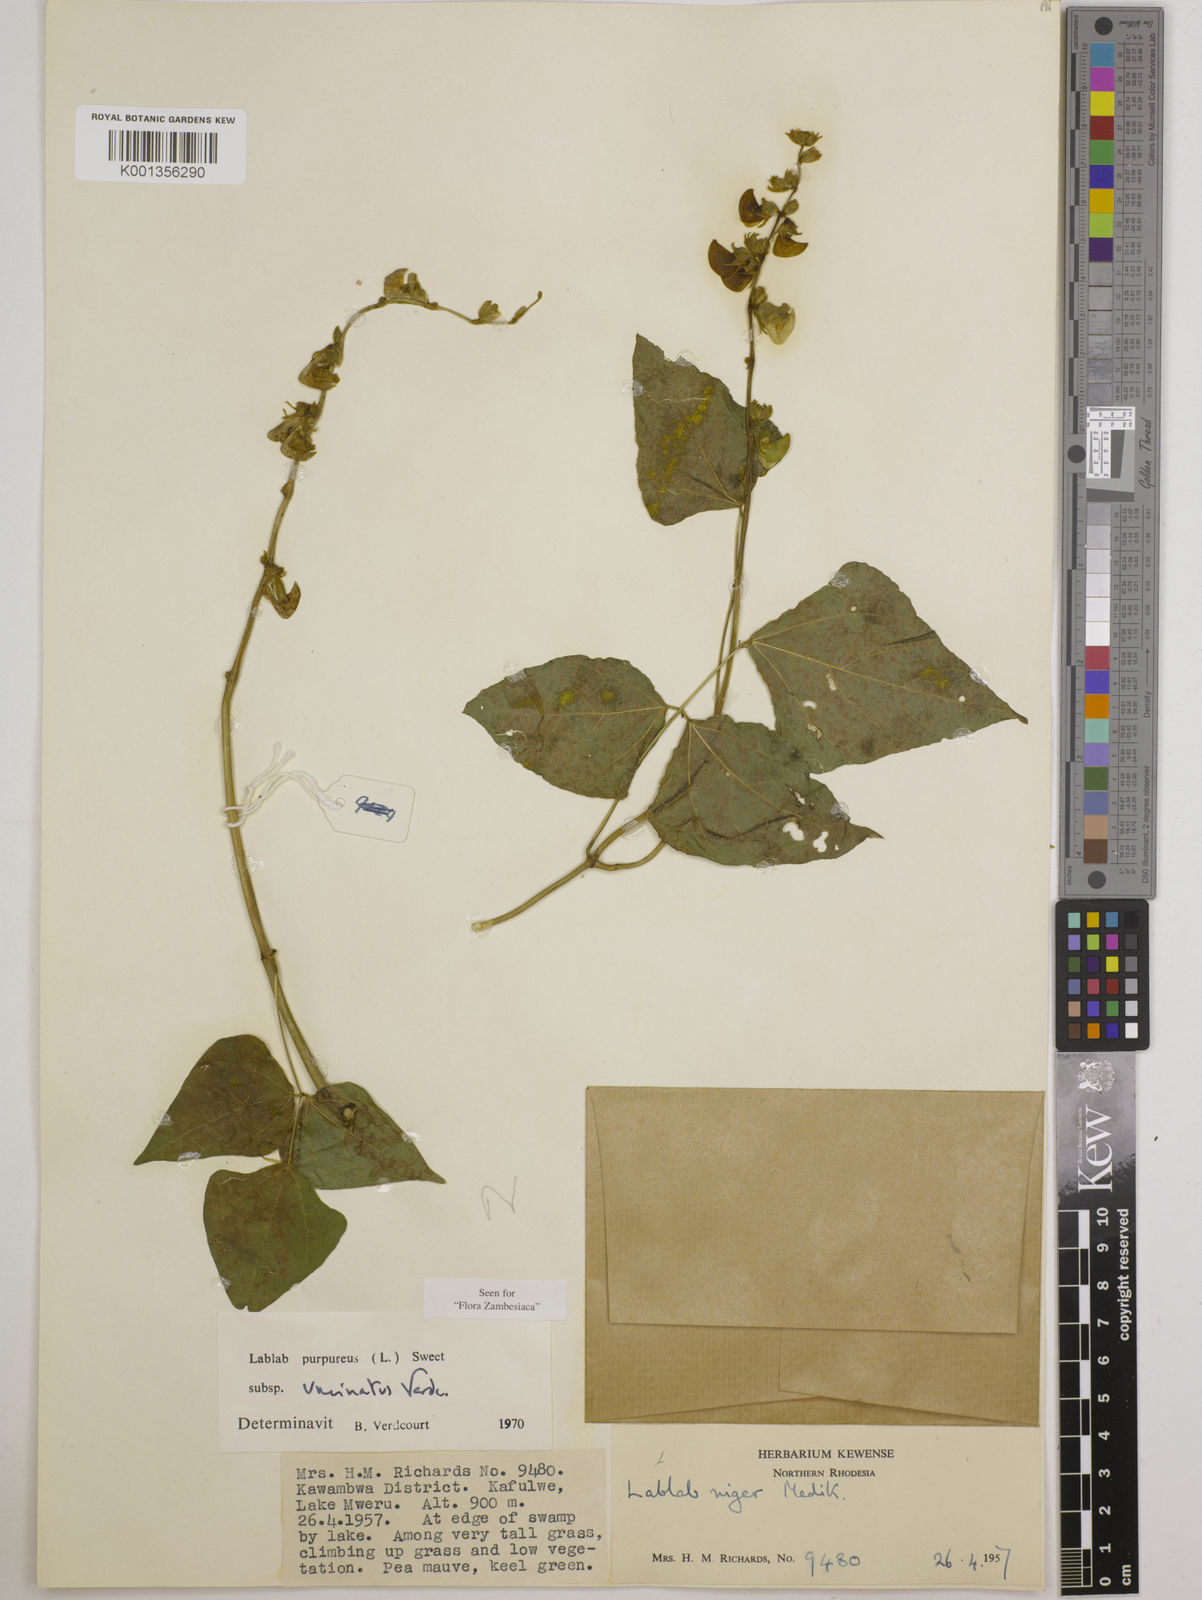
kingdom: Plantae
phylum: Tracheophyta
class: Magnoliopsida
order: Fabales
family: Fabaceae
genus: Lablab
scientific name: Lablab
